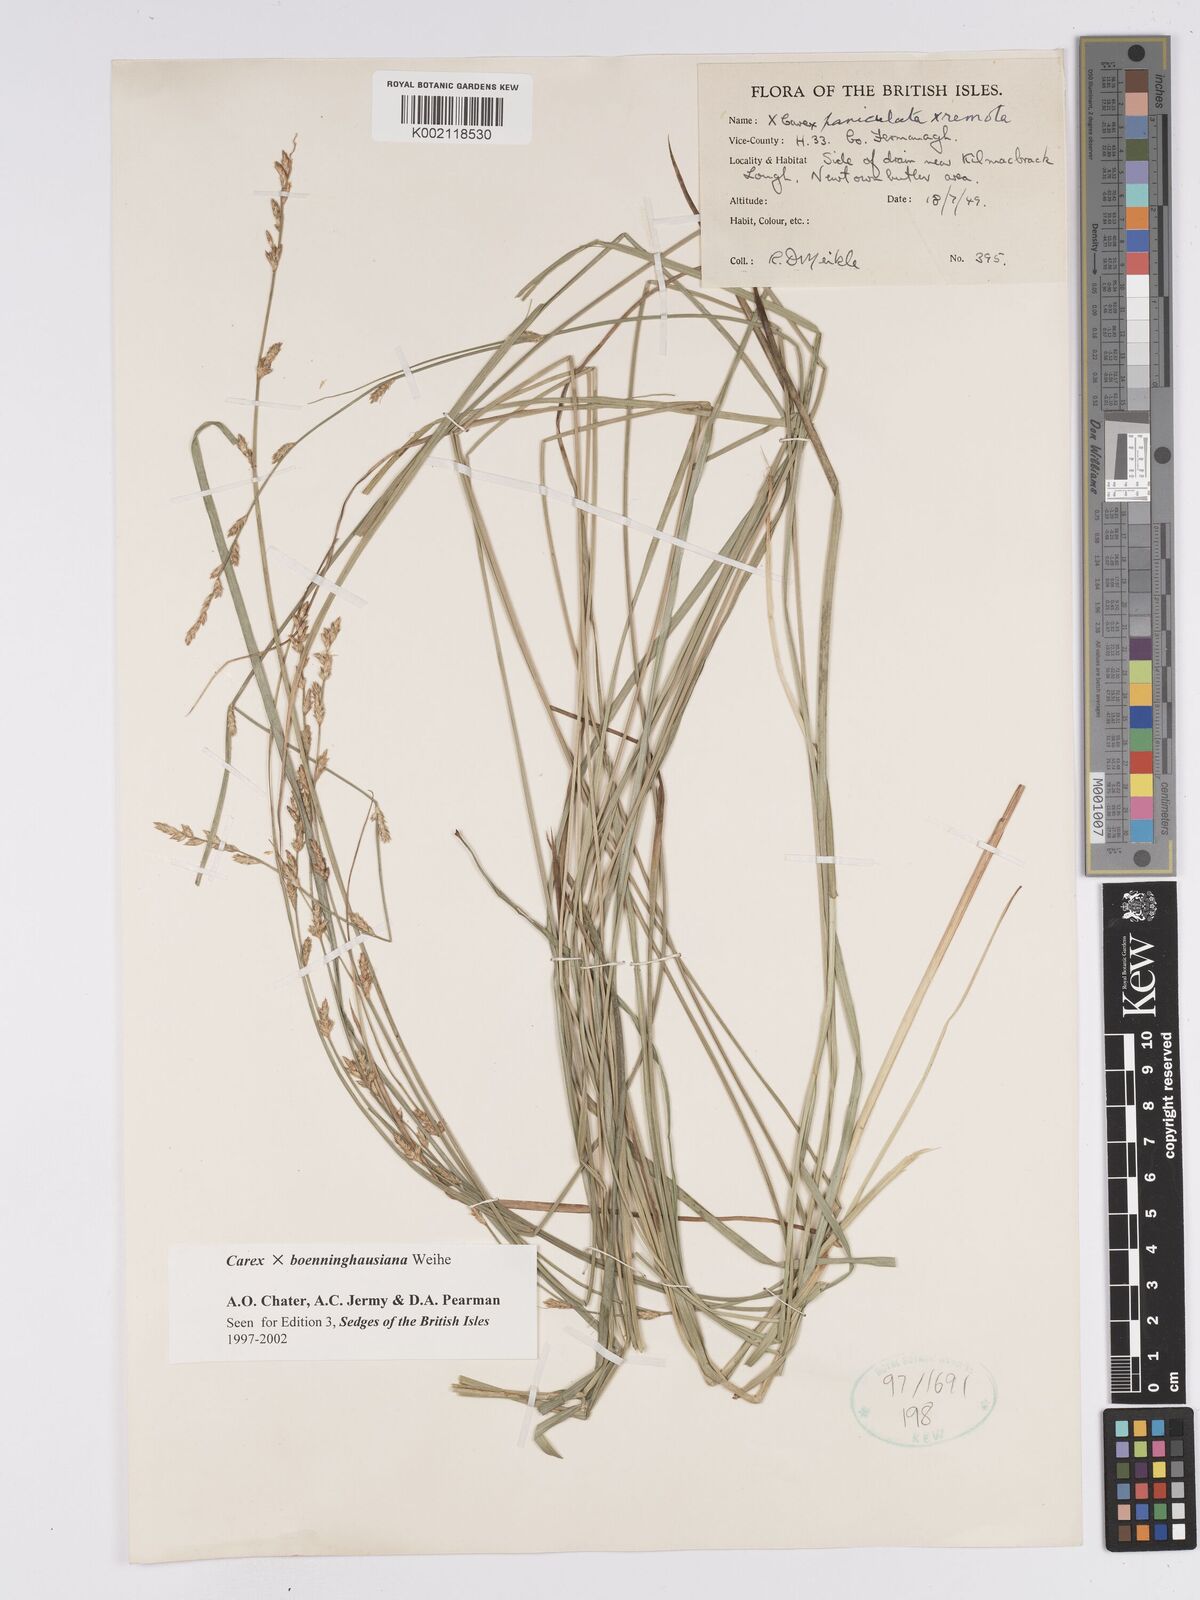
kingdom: Plantae
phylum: Tracheophyta
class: Liliopsida
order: Poales
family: Cyperaceae
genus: Carex
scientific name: Carex boenninghausiana
